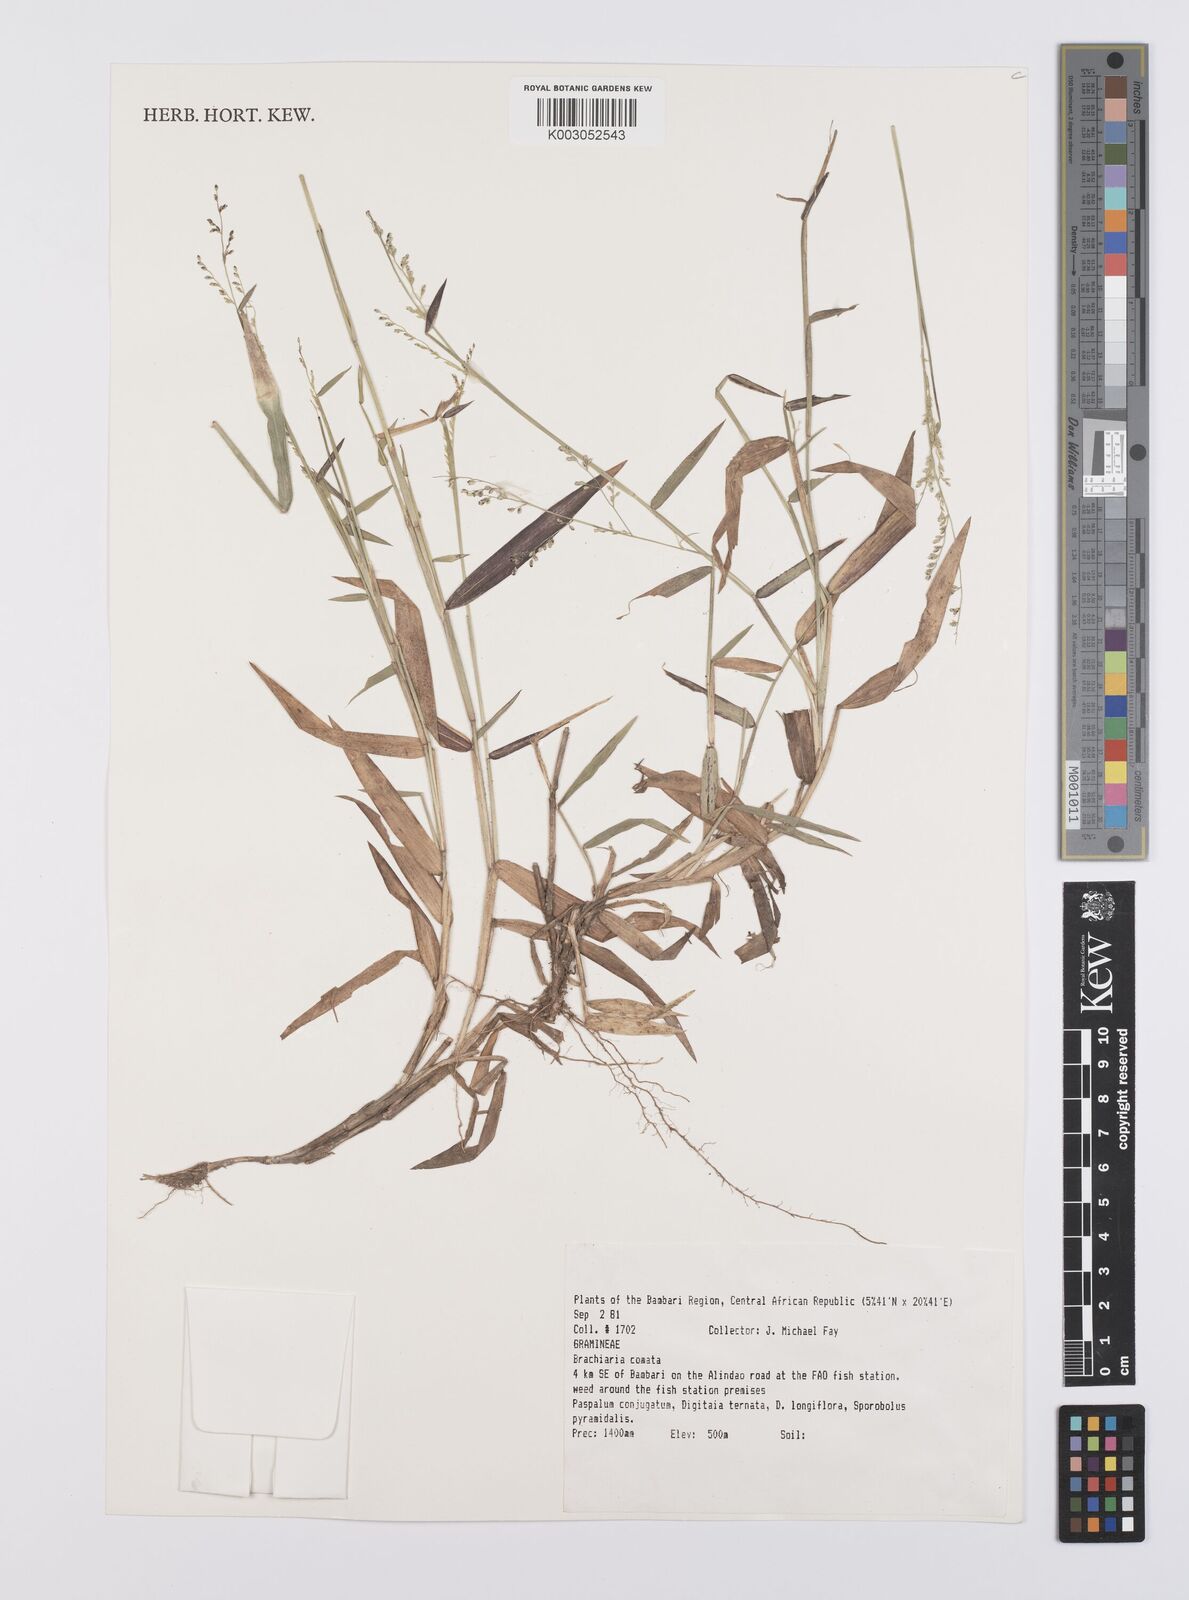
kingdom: Plantae
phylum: Tracheophyta
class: Liliopsida
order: Poales
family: Poaceae
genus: Urochloa
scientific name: Urochloa comata
